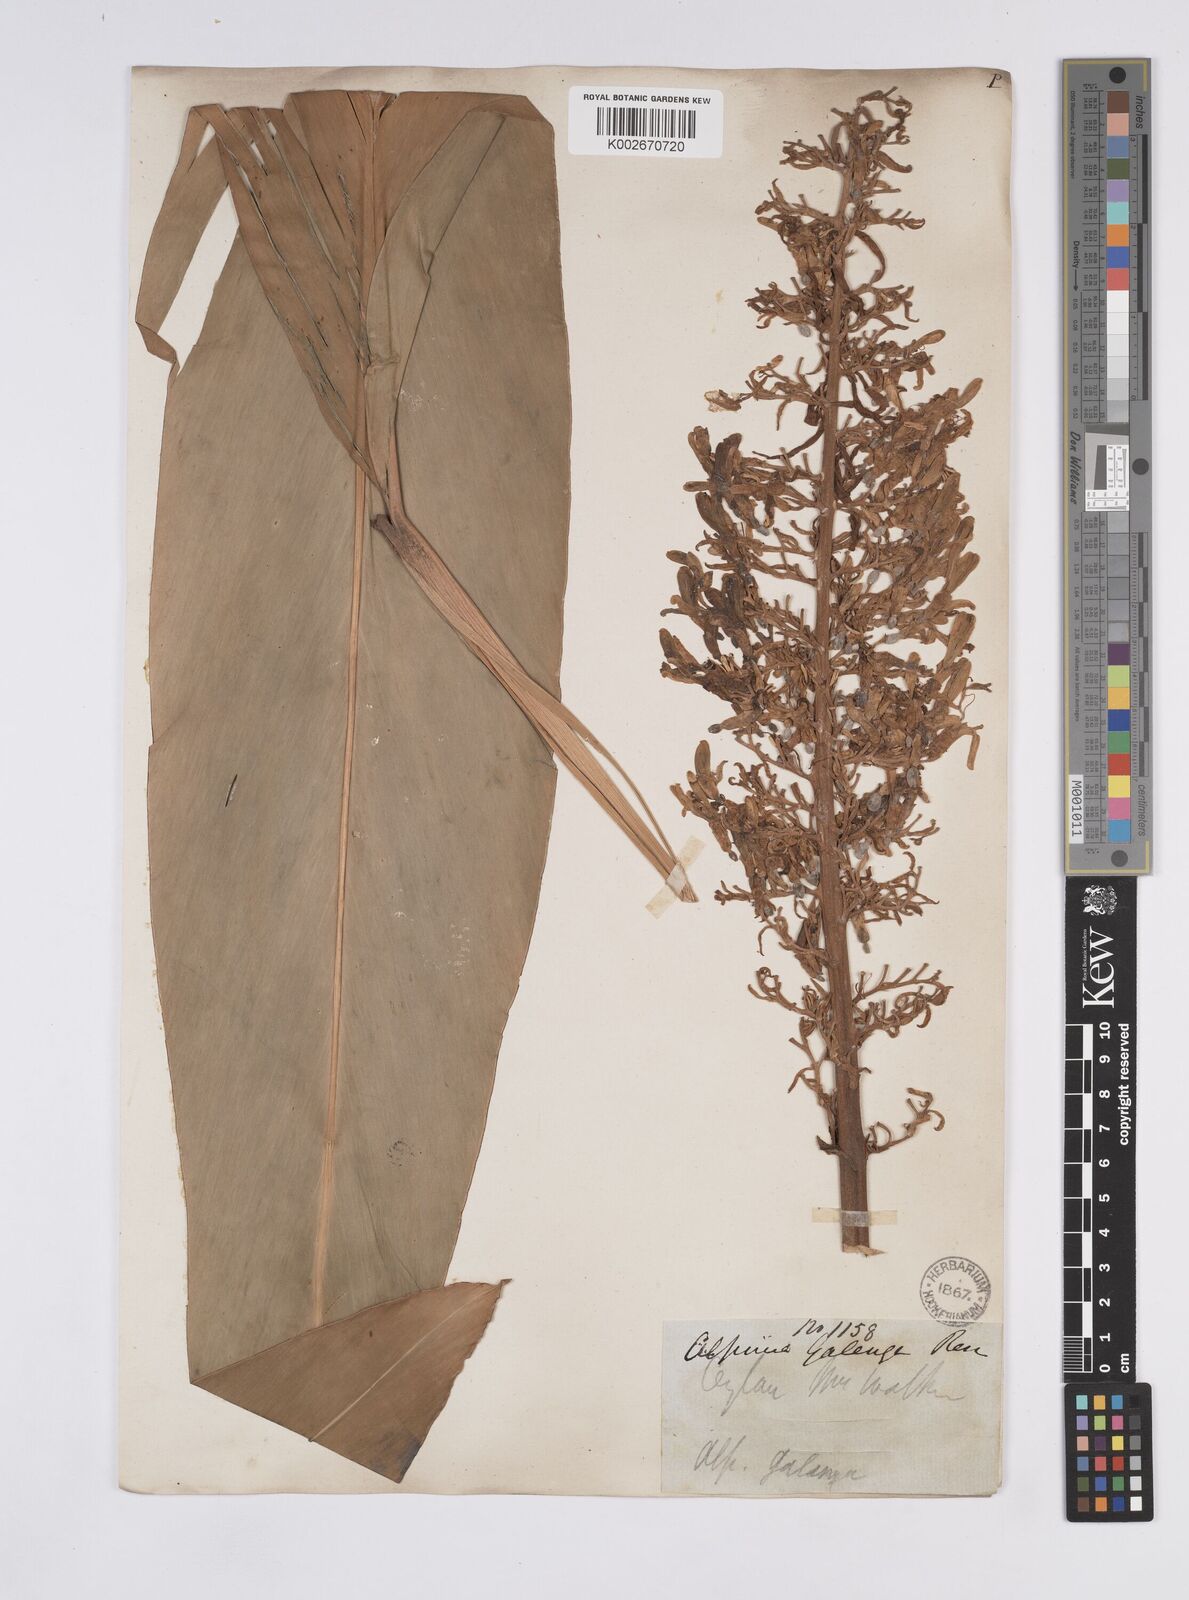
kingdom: Plantae
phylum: Tracheophyta
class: Liliopsida
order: Zingiberales
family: Zingiberaceae
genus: Alpinia
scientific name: Alpinia galanga
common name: Siamese-ginger
